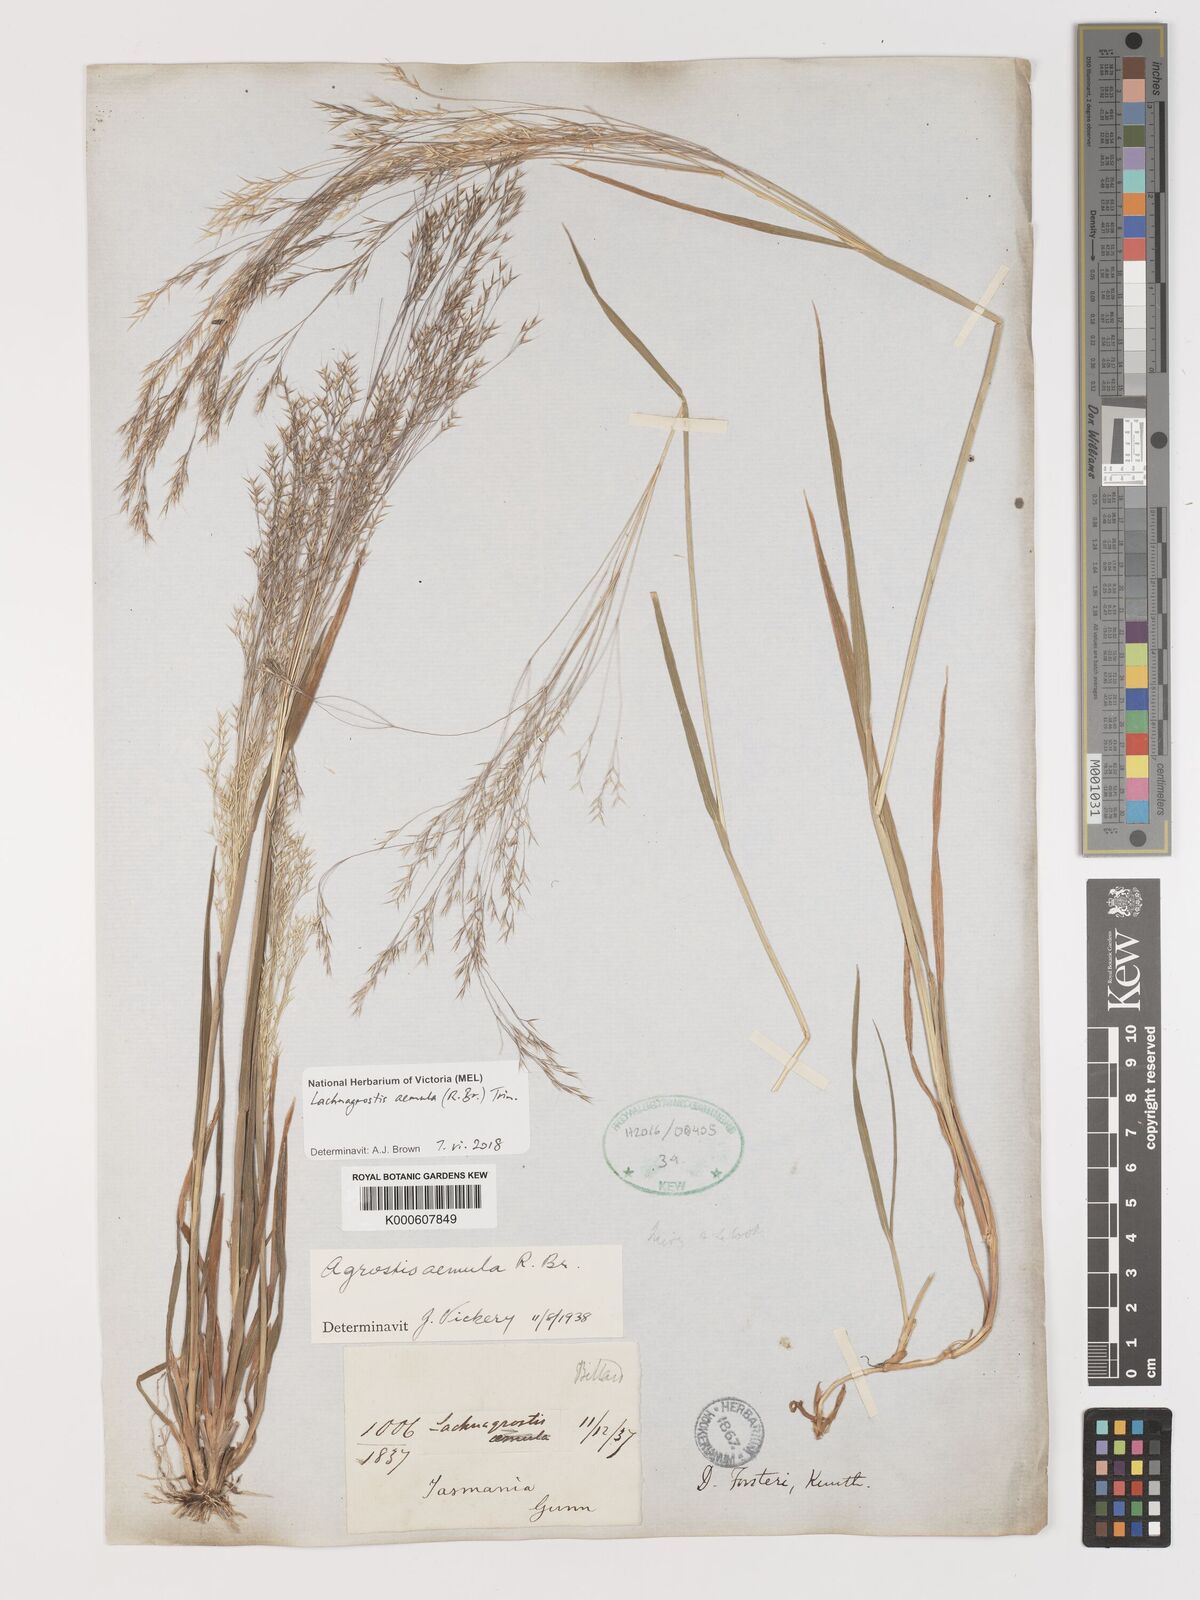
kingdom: Plantae
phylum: Tracheophyta
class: Liliopsida
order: Poales
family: Poaceae
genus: Lachnagrostis
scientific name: Lachnagrostis aemula
